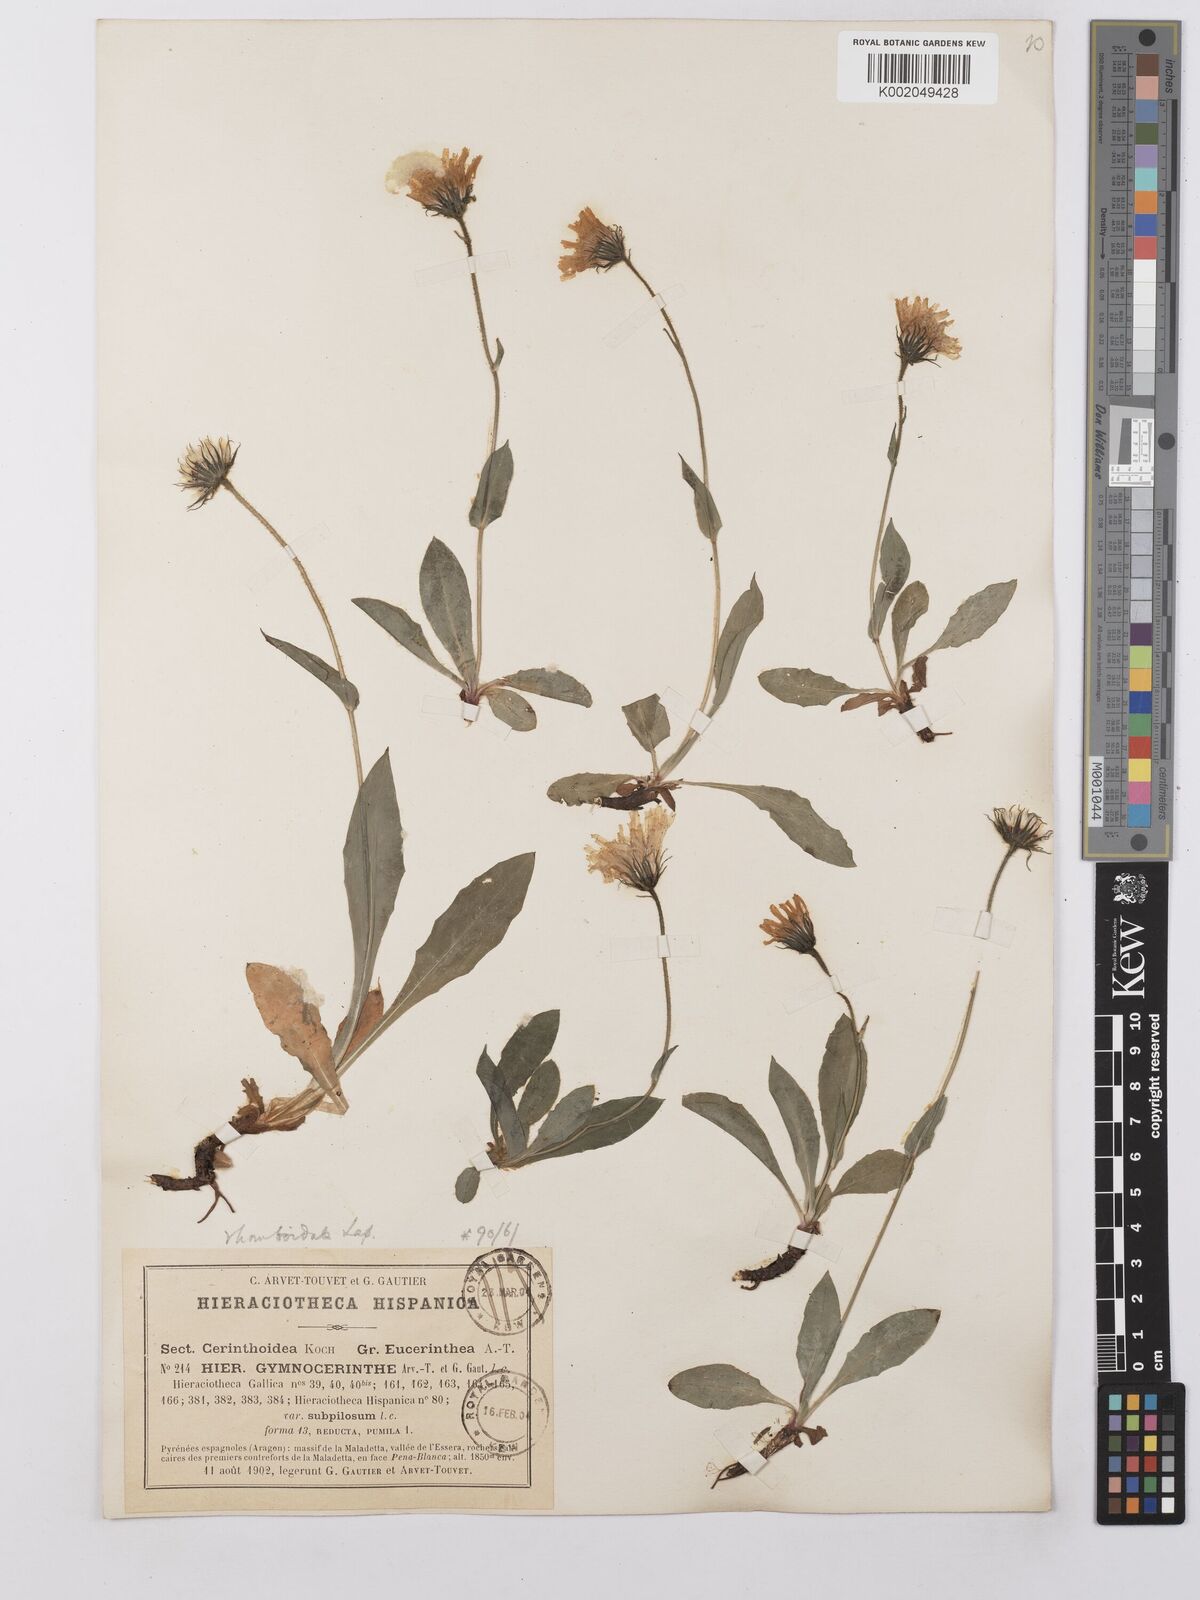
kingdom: Plantae
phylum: Tracheophyta
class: Magnoliopsida
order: Asterales
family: Asteraceae
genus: Hieracium
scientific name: Hieracium cerinthoides
